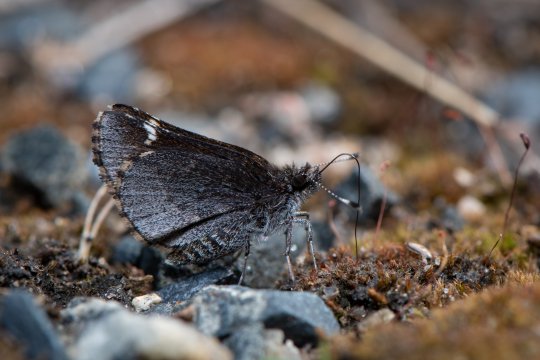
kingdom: Animalia
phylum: Arthropoda
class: Insecta
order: Lepidoptera
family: Hesperiidae
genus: Mastor
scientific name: Mastor vialis
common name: Common Roadside-Skipper
